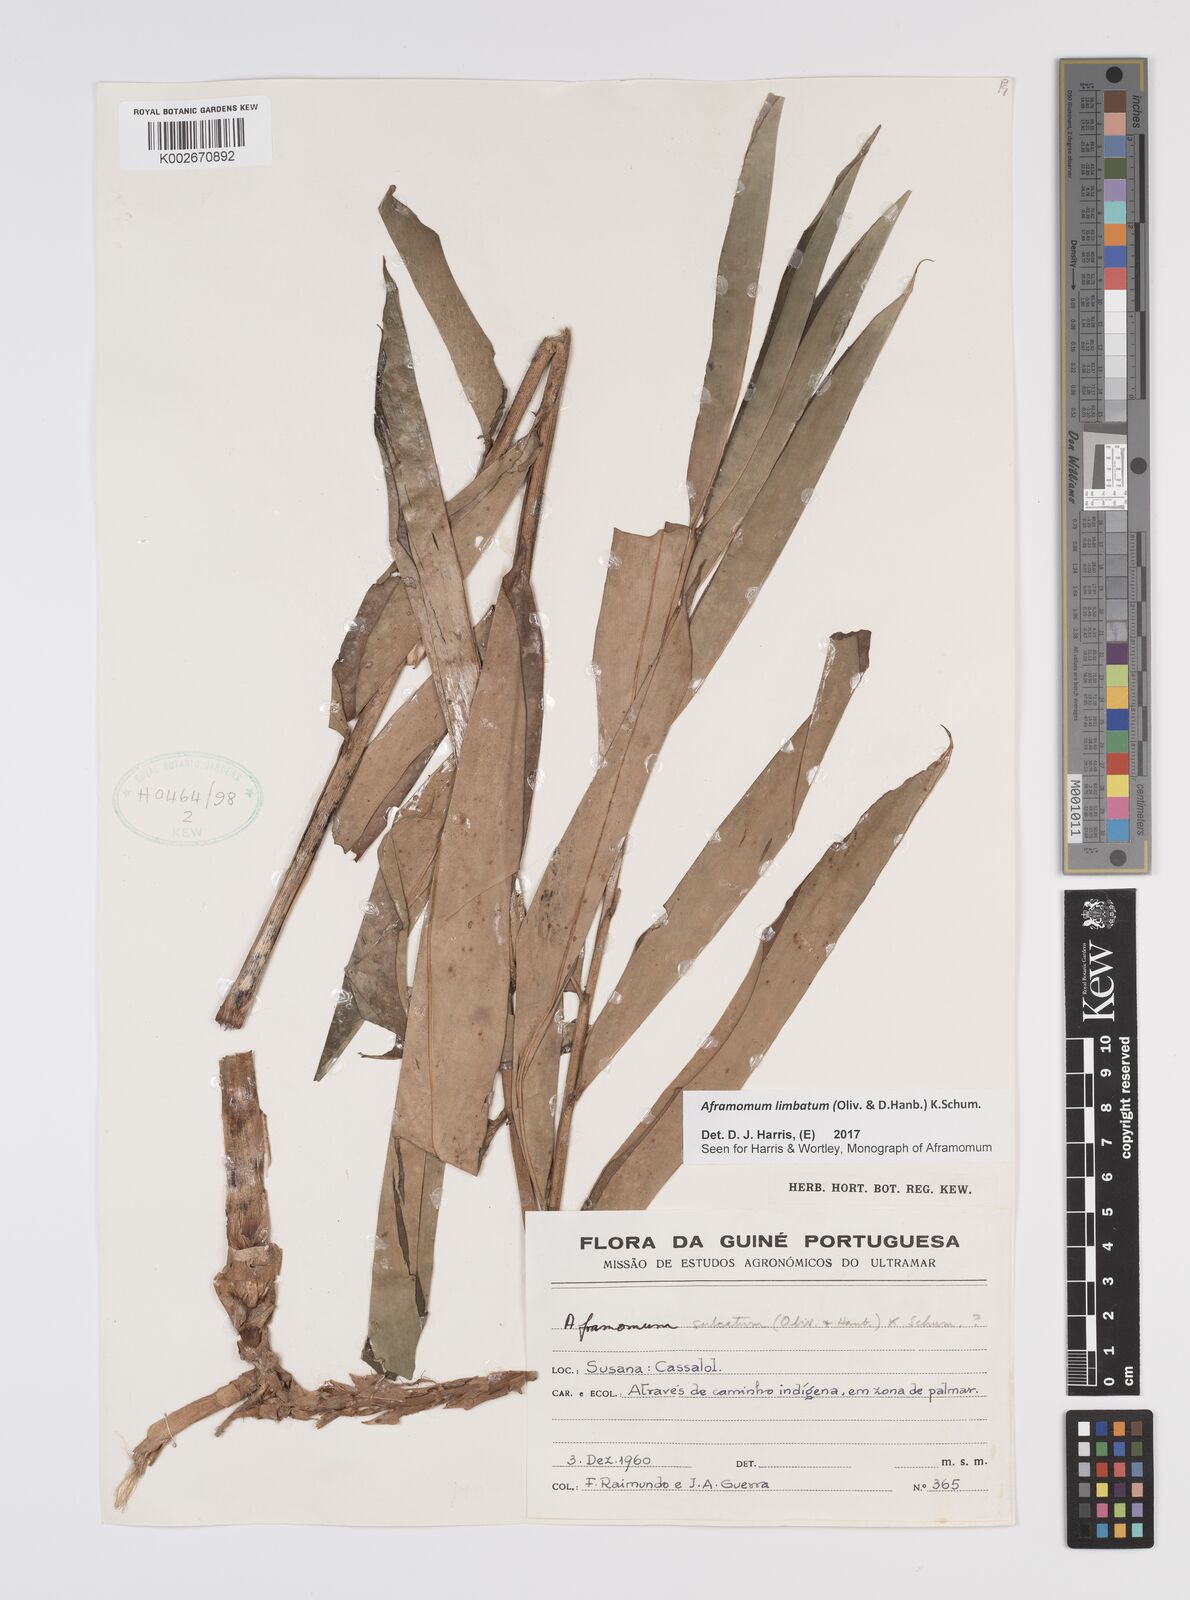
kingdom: Plantae
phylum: Tracheophyta
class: Liliopsida
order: Zingiberales
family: Zingiberaceae
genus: Aframomum
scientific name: Aframomum limbatum
